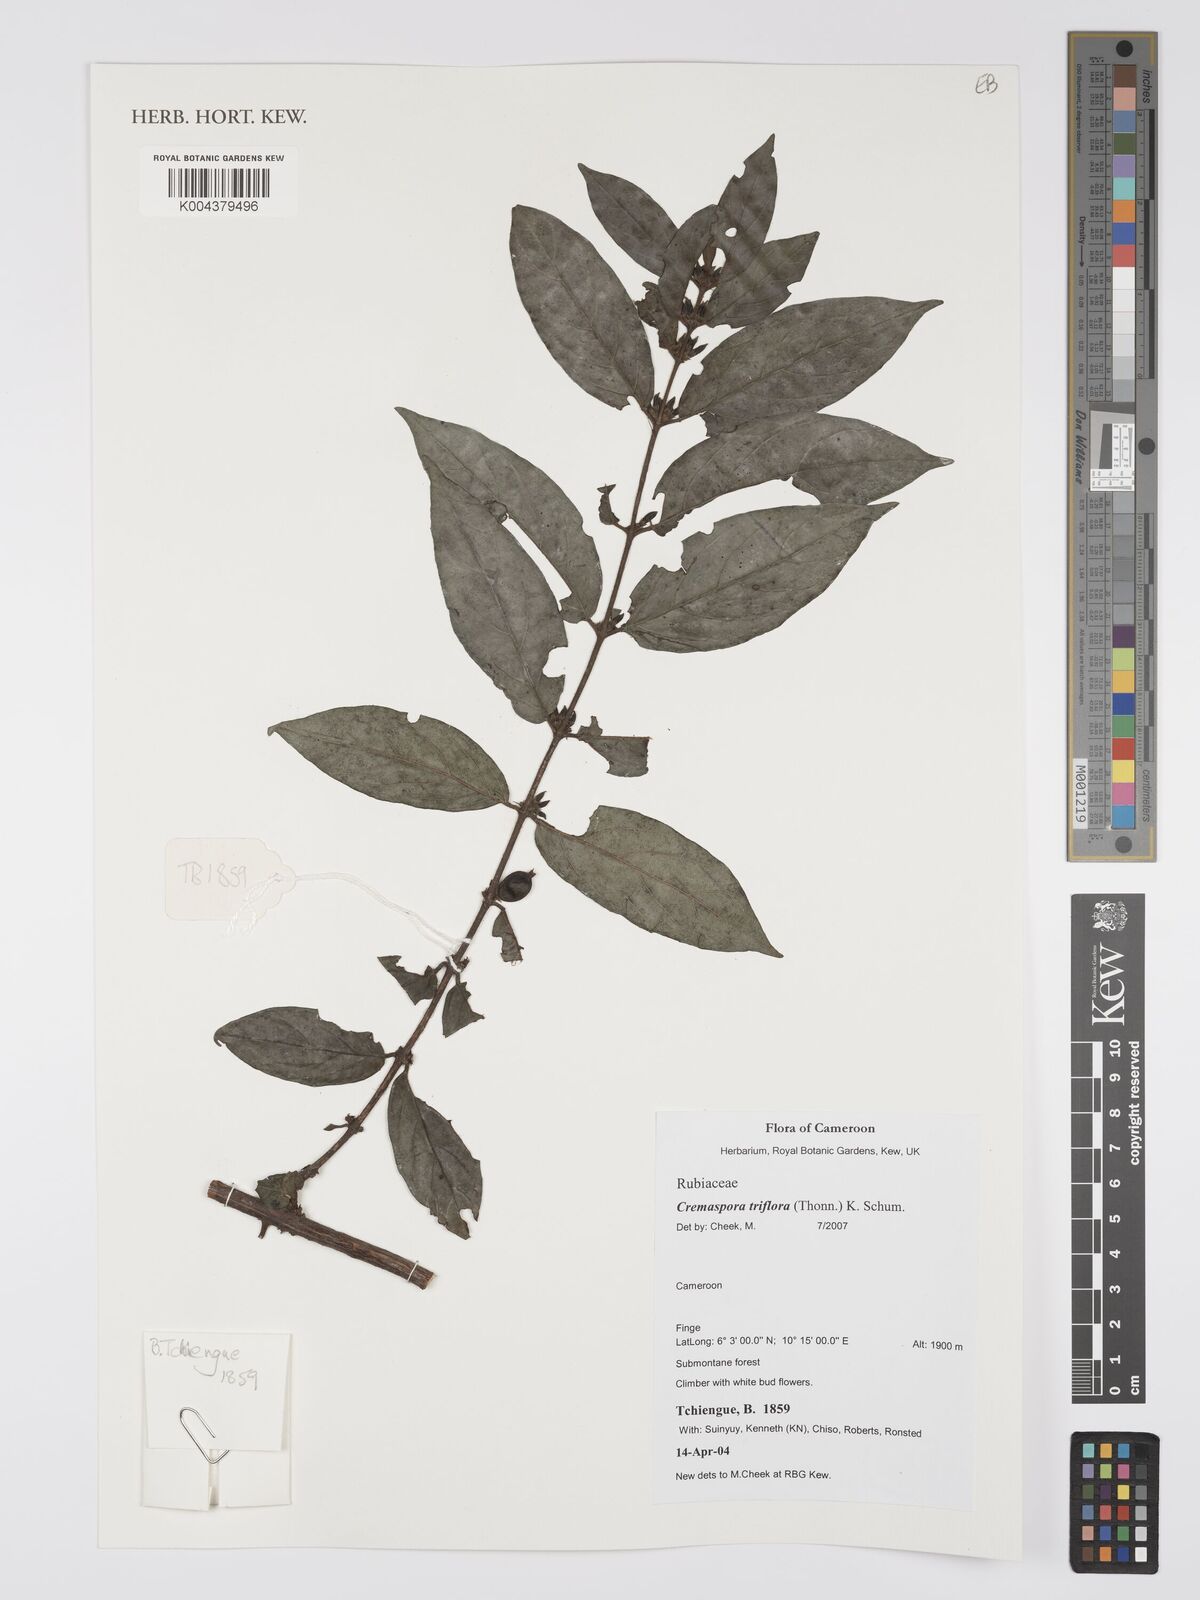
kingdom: Plantae
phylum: Tracheophyta
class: Magnoliopsida
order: Gentianales
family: Rubiaceae
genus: Cremaspora
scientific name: Cremaspora triflora
